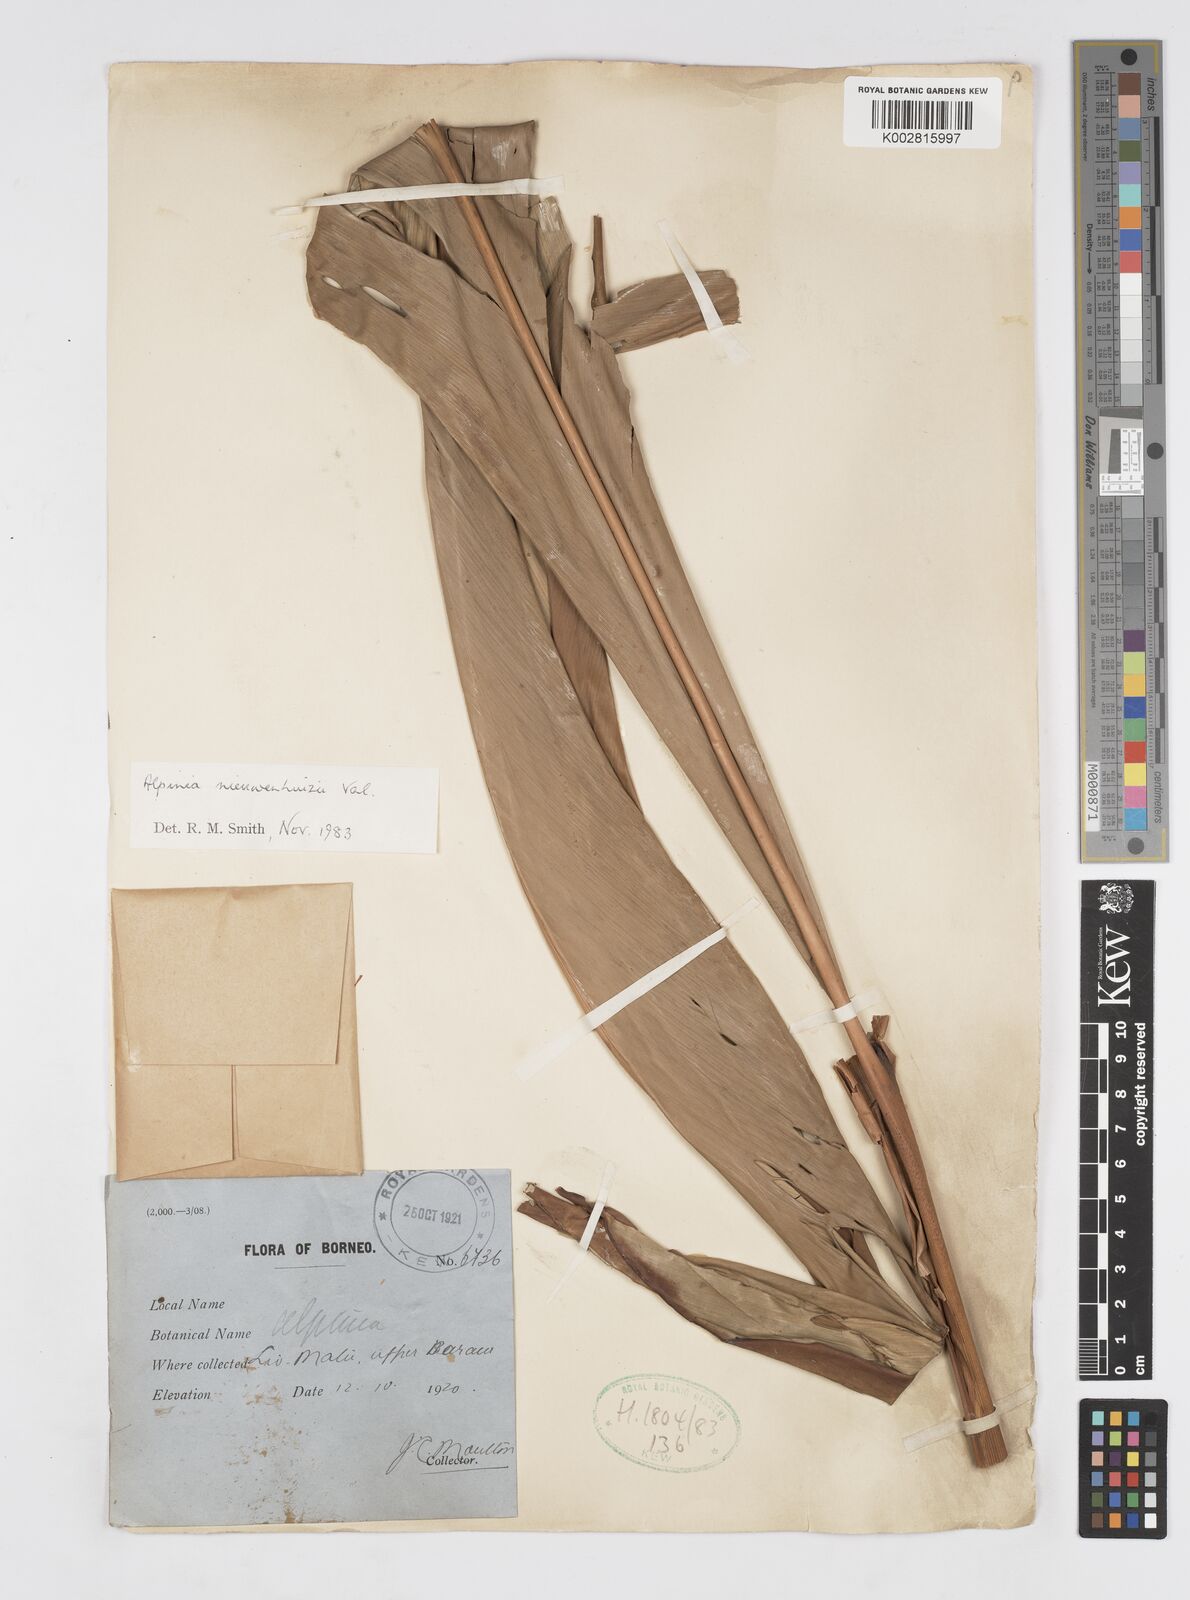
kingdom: Plantae
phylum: Tracheophyta
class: Liliopsida
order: Zingiberales
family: Zingiberaceae
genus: Alpinia
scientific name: Alpinia nieuwenhuizii
